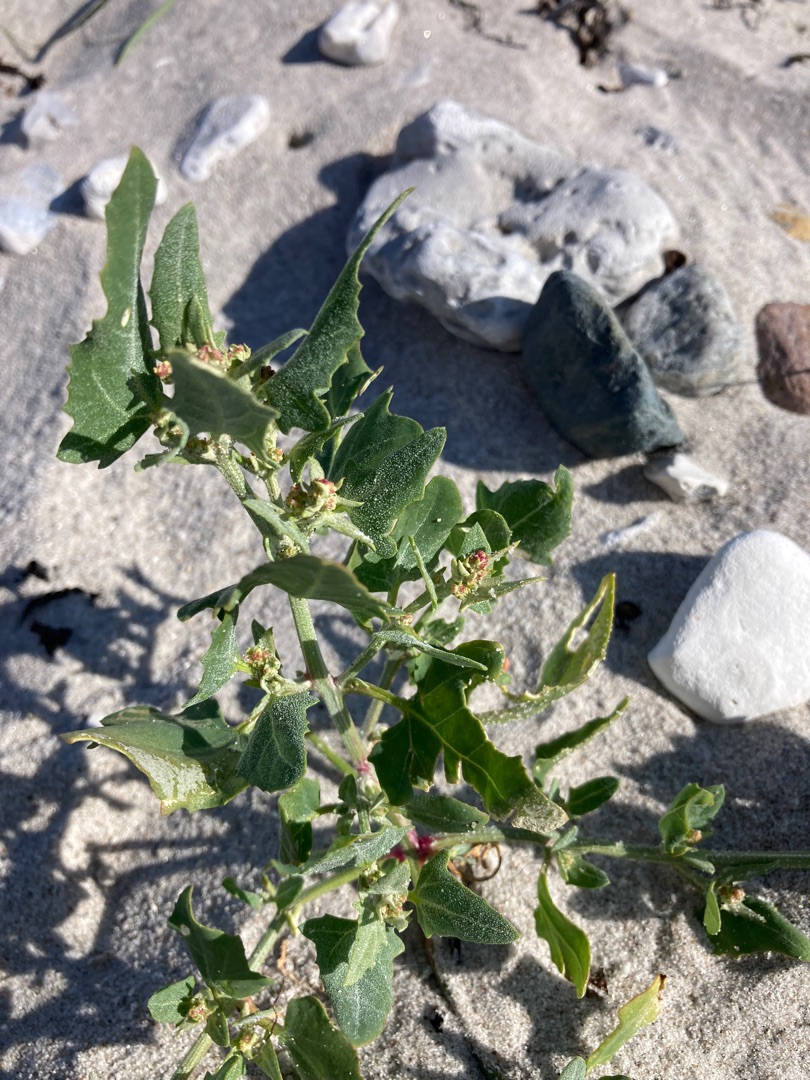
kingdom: Plantae
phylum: Tracheophyta
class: Magnoliopsida
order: Caryophyllales
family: Amaranthaceae
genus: Atriplex
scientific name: Atriplex prostrata
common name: Spyd-mælde
